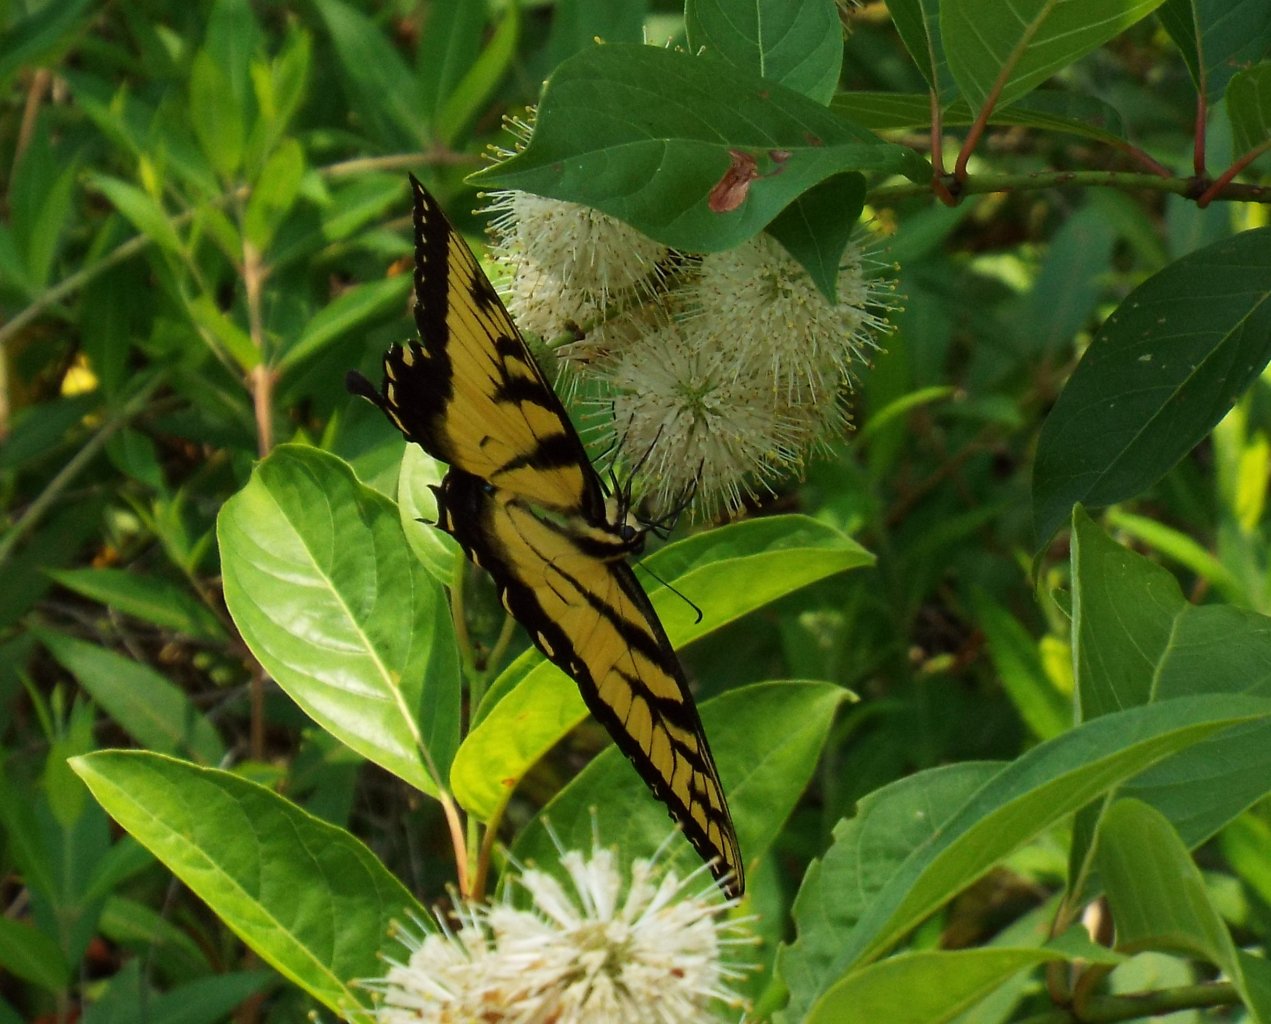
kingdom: Animalia
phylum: Arthropoda
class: Insecta
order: Lepidoptera
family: Papilionidae
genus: Pterourus
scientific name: Pterourus glaucus
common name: Eastern Tiger Swallowtail
